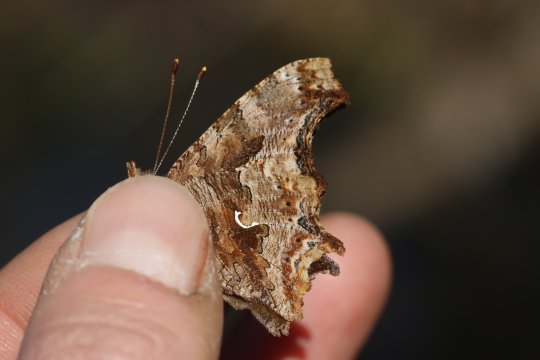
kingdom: Animalia
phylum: Arthropoda
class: Insecta
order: Lepidoptera
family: Nymphalidae
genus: Polygonia
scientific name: Polygonia comma
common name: Eastern Comma
